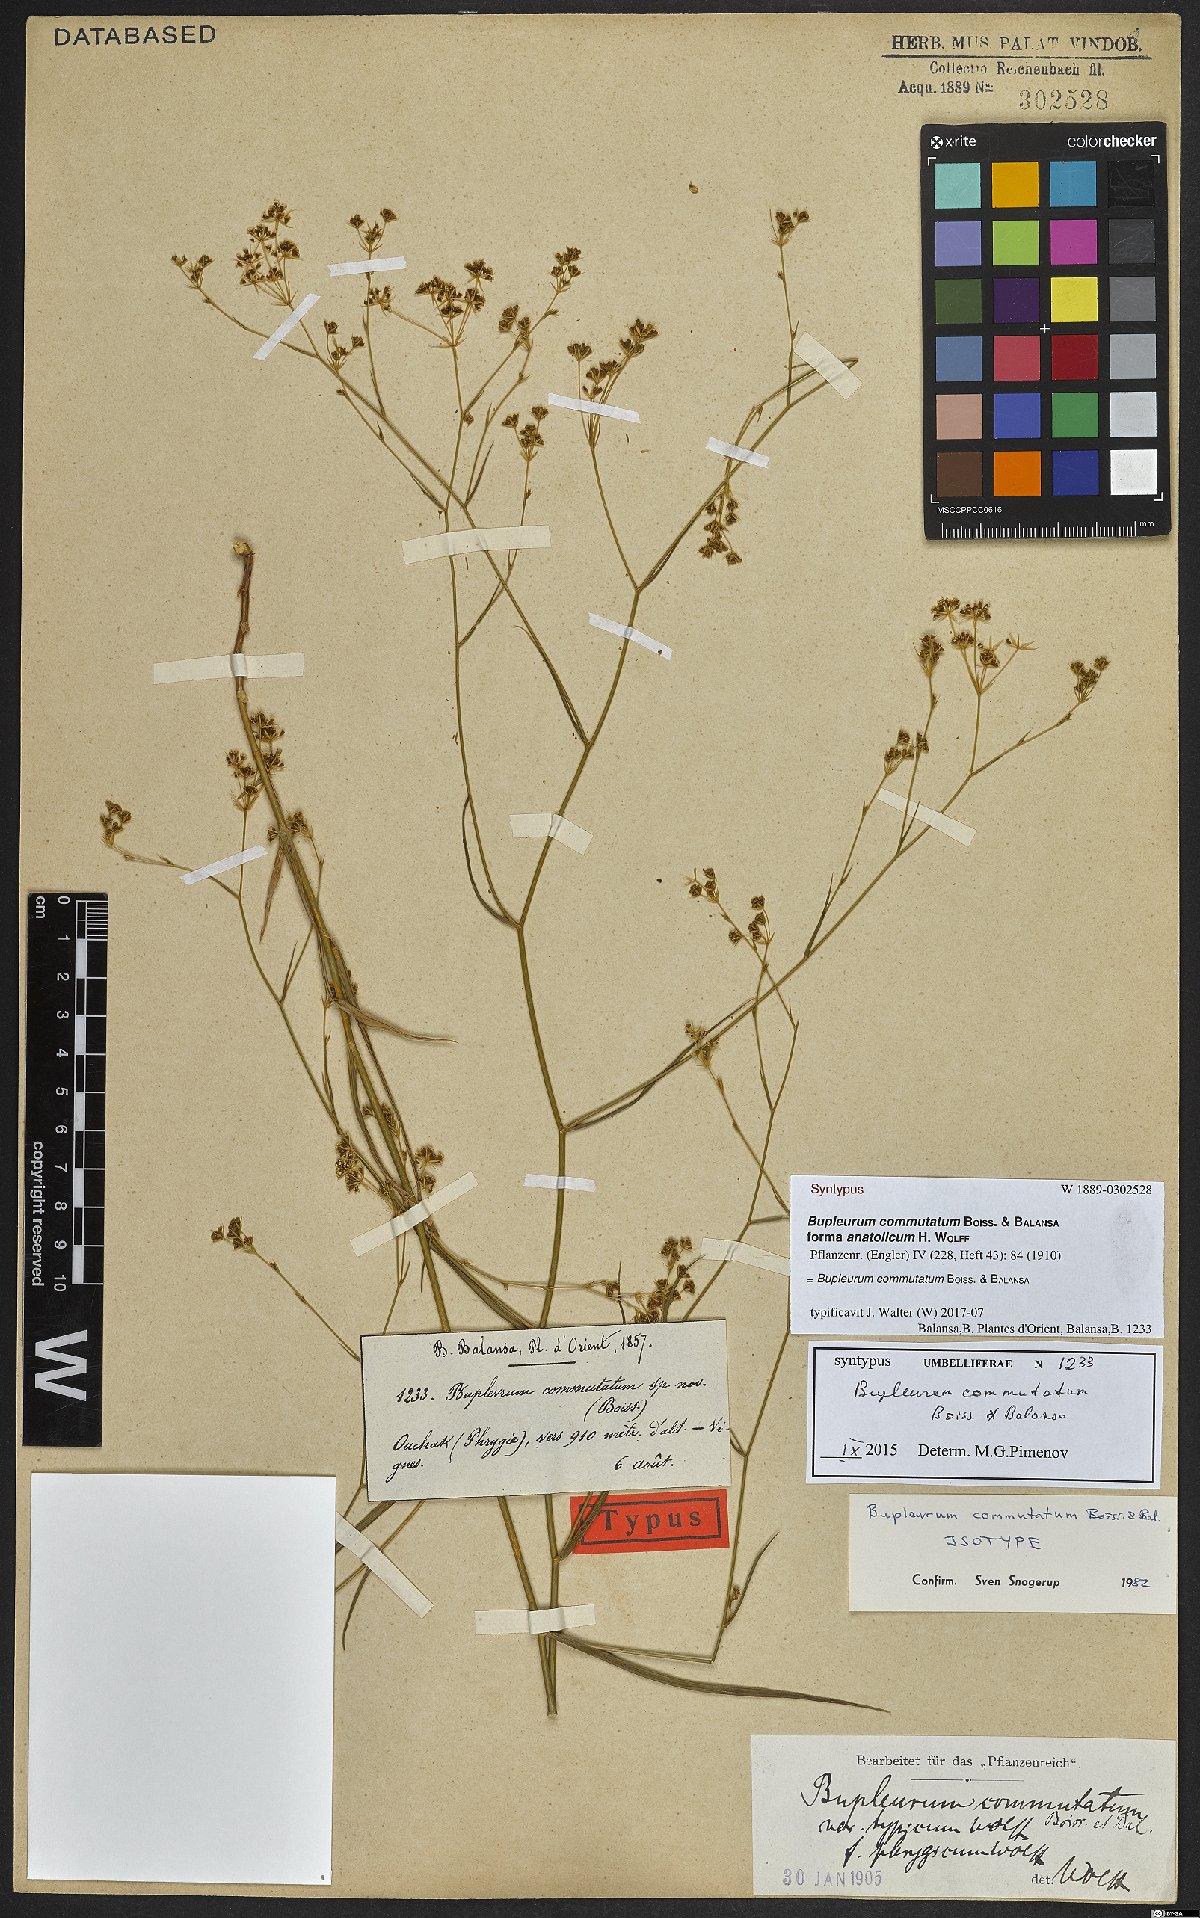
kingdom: Plantae
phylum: Tracheophyta
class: Magnoliopsida
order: Apiales
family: Apiaceae
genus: Bupleurum
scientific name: Bupleurum commutatum
